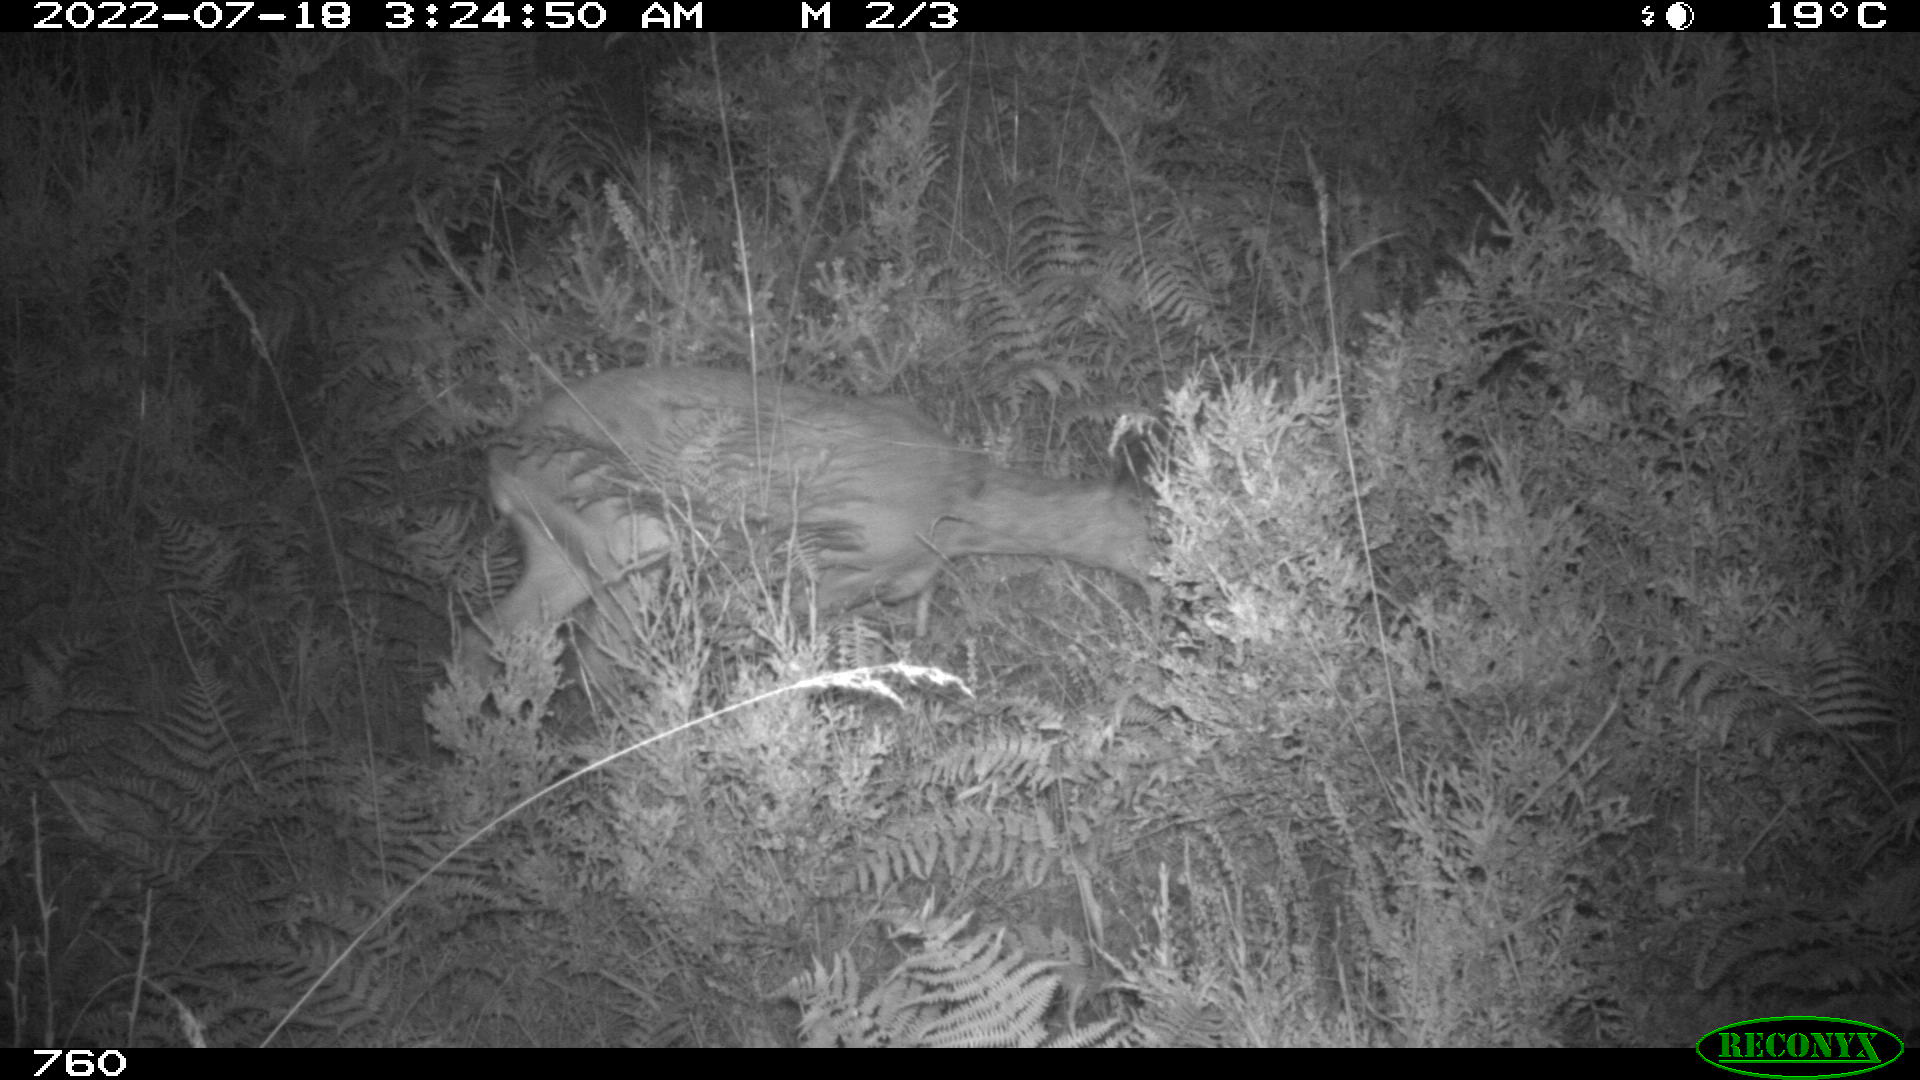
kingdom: Animalia
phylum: Chordata
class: Mammalia
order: Artiodactyla
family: Cervidae
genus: Capreolus
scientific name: Capreolus capreolus
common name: Western roe deer
